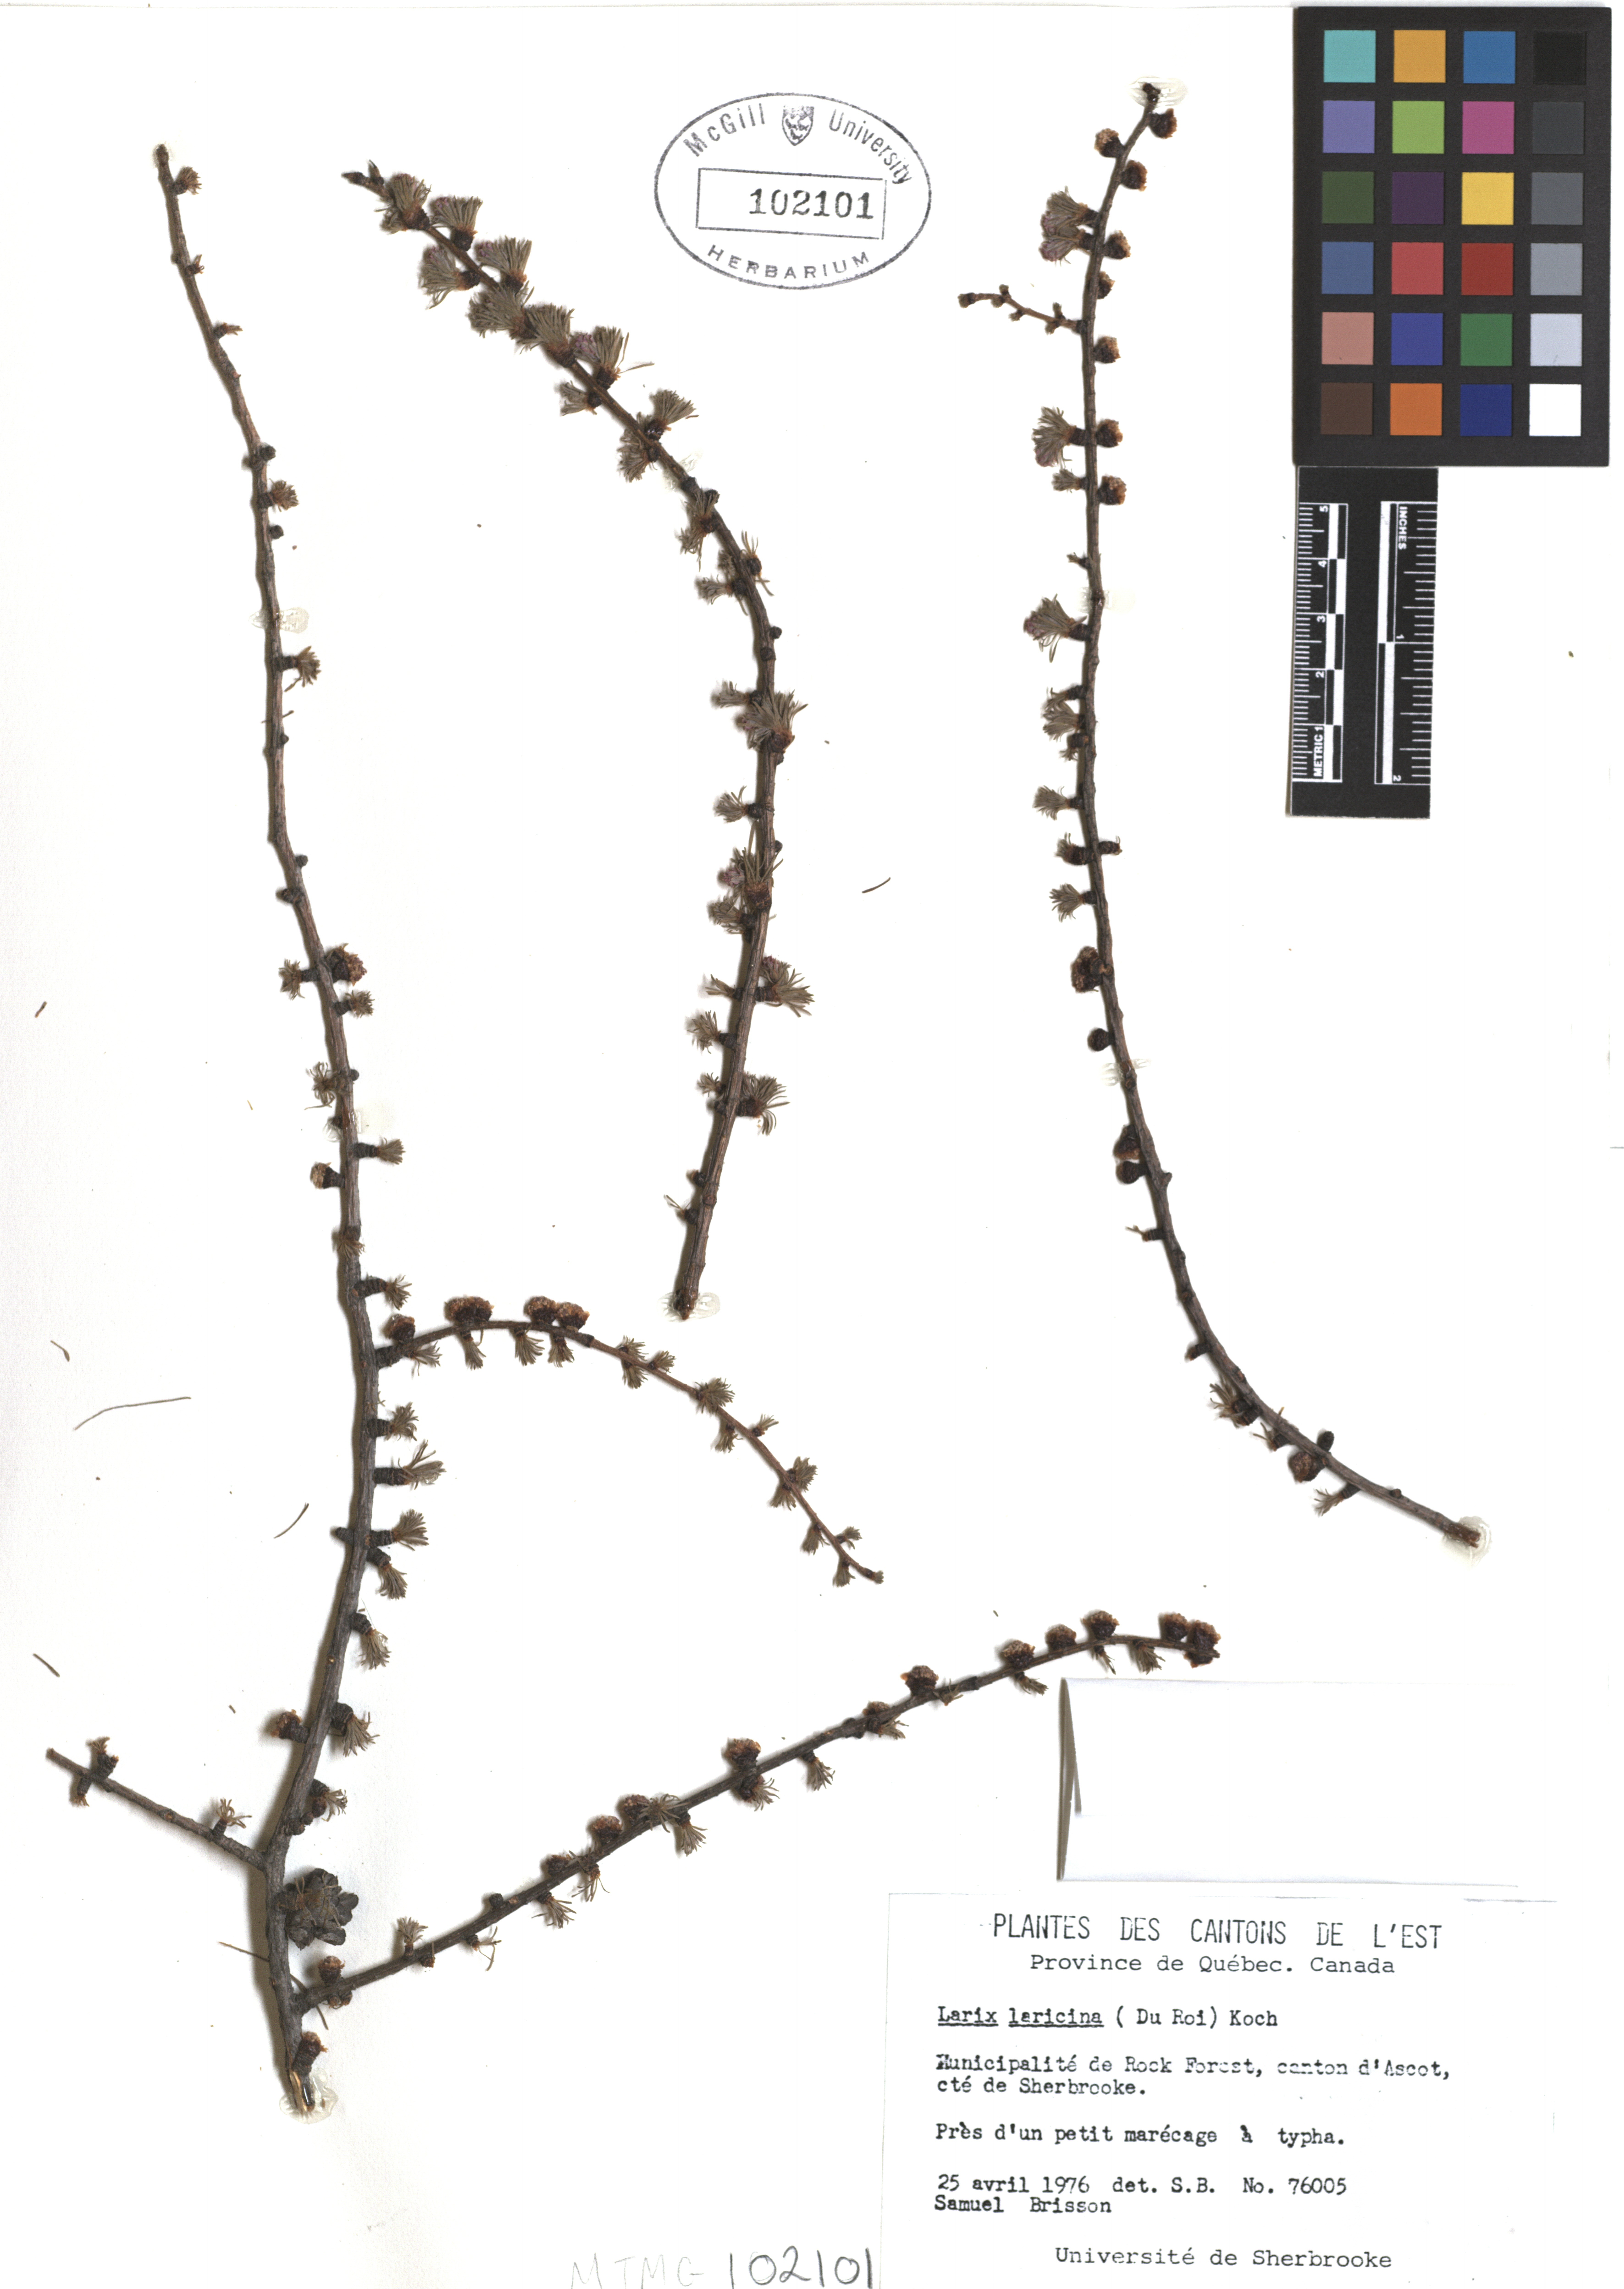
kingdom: Plantae
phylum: Tracheophyta
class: Pinopsida
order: Pinales
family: Pinaceae
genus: Larix
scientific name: Larix laricina
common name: American larch
